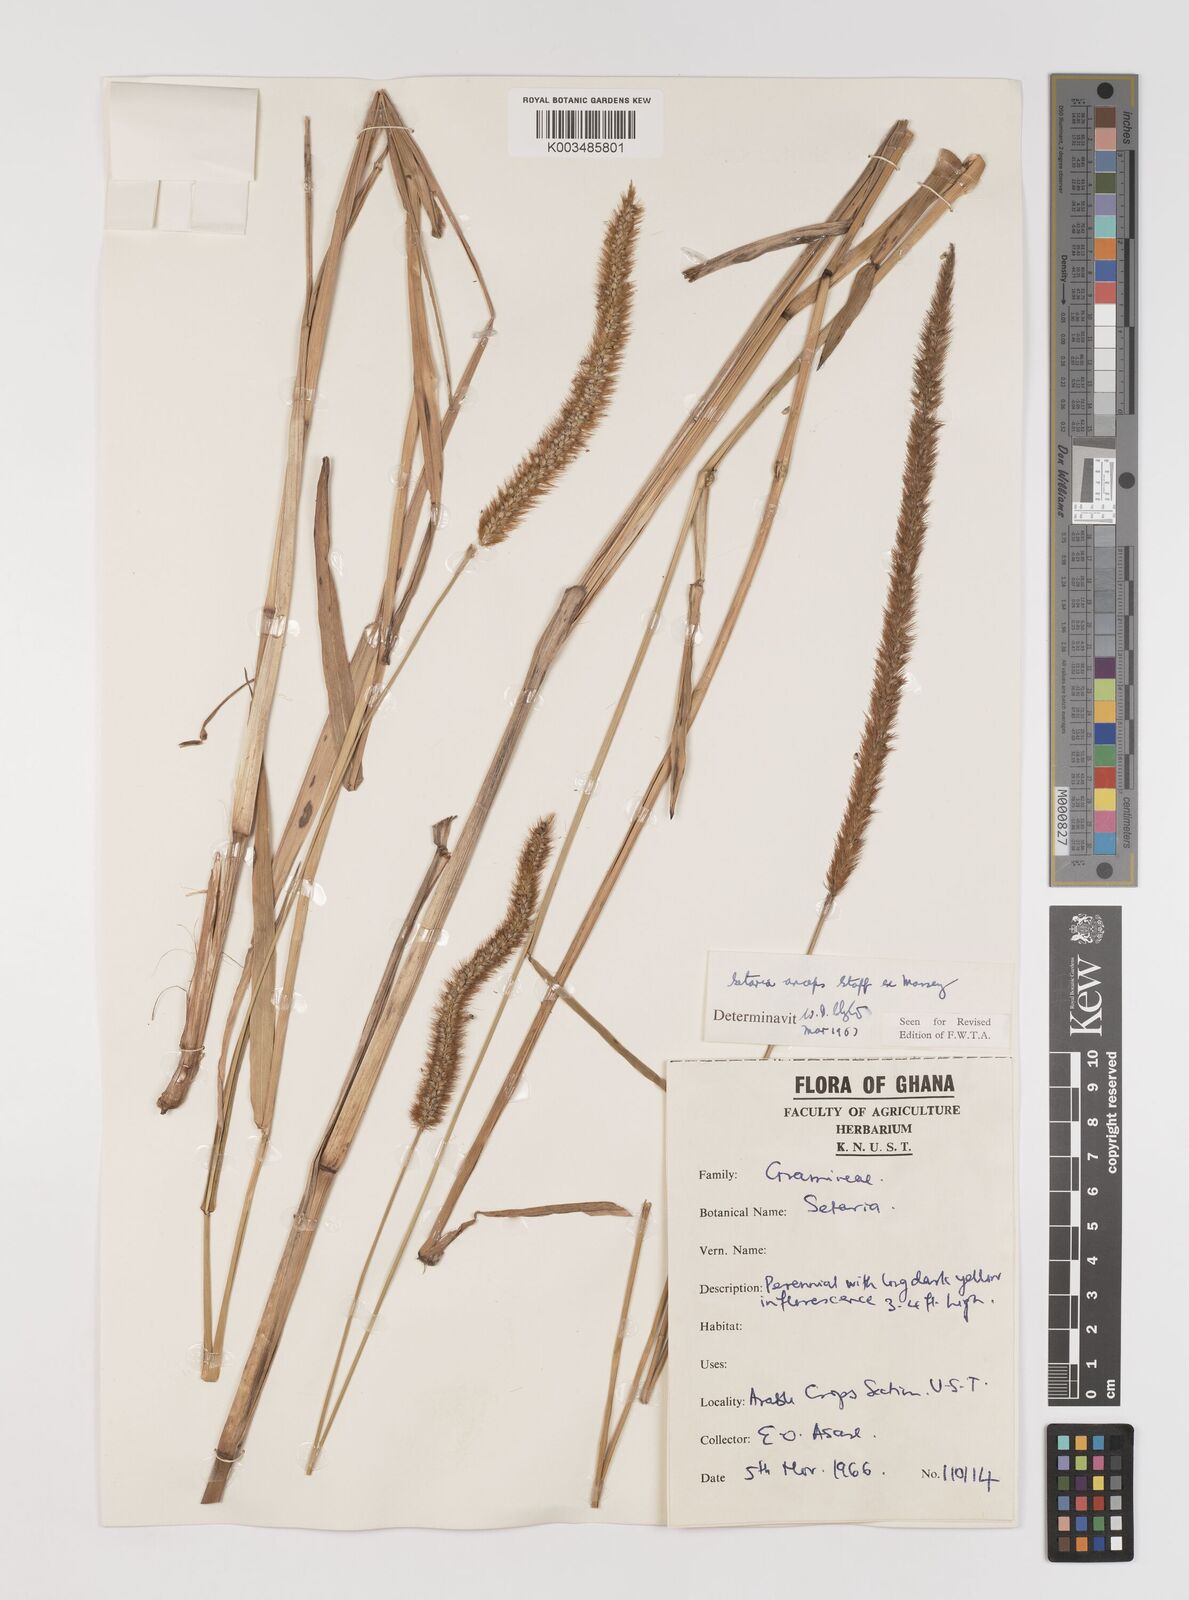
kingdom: Plantae
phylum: Tracheophyta
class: Liliopsida
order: Poales
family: Poaceae
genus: Setaria
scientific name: Setaria sphacelata
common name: African bristlegrass
